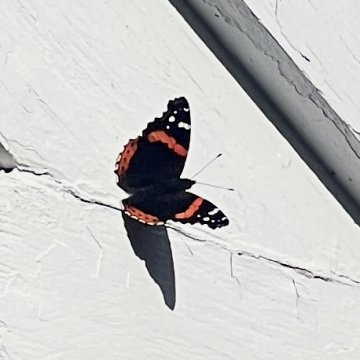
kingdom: Animalia
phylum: Arthropoda
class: Insecta
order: Lepidoptera
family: Nymphalidae
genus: Vanessa
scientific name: Vanessa atalanta
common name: Red Admiral
